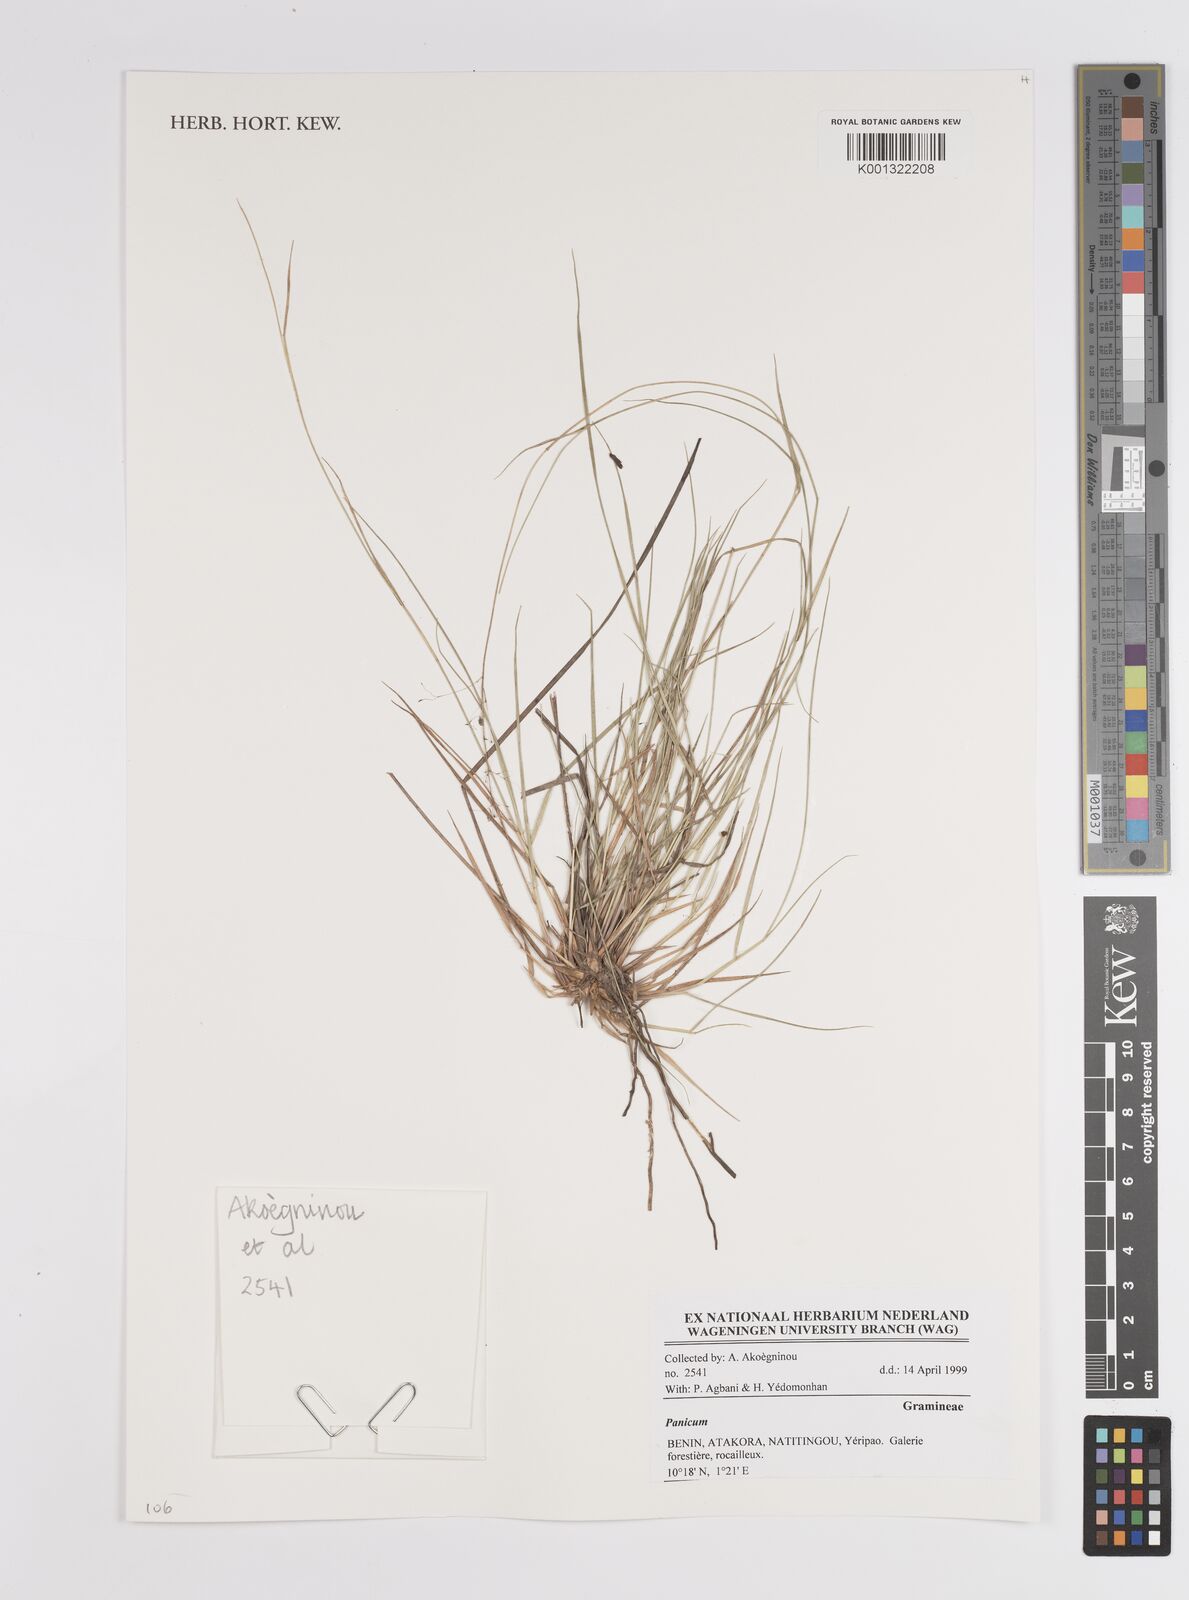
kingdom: Plantae
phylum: Tracheophyta
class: Polypodiopsida
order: Cyatheales
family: Cyatheaceae
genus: Alsophila
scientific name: Alsophila camerooniana
